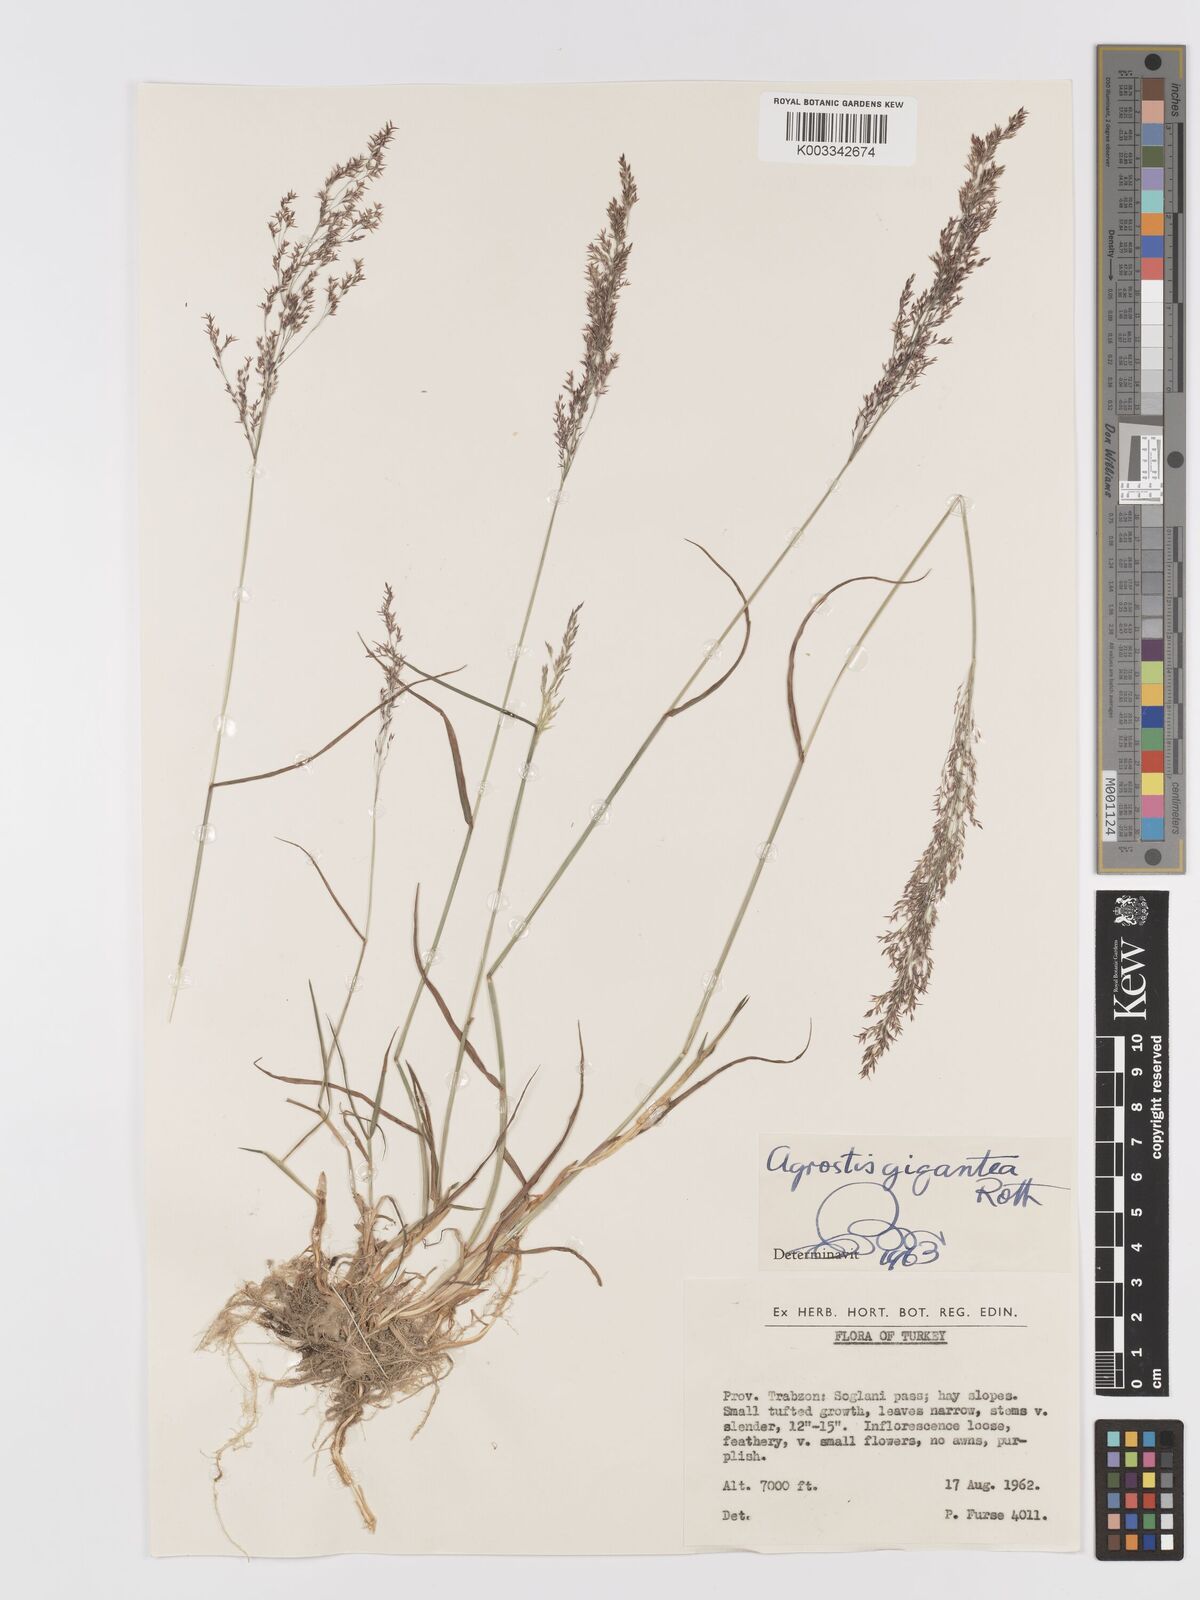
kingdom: Plantae
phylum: Tracheophyta
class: Liliopsida
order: Poales
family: Poaceae
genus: Agrostis
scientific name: Agrostis gigantea
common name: Black bent
